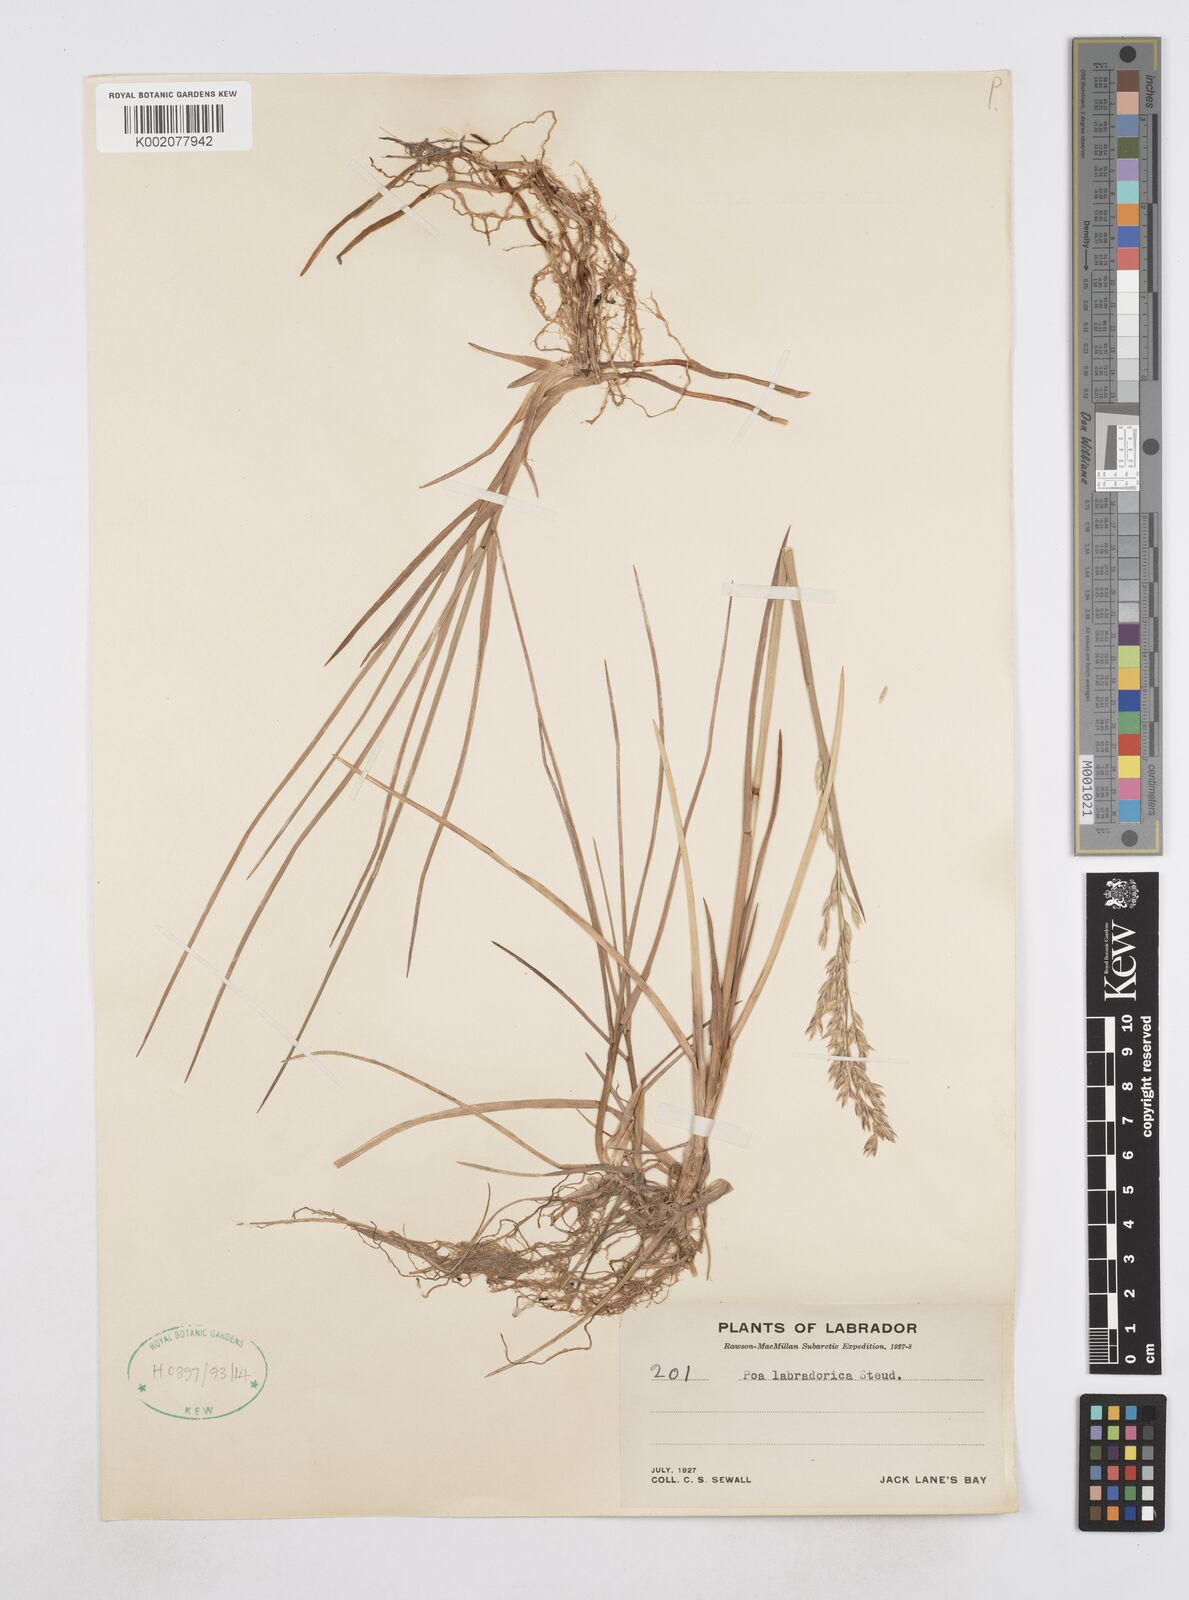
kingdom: Plantae
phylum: Tracheophyta
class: Liliopsida
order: Poales
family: Poaceae
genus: Arctopoa
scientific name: Arctopoa eminens
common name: Eminent bluegrass
